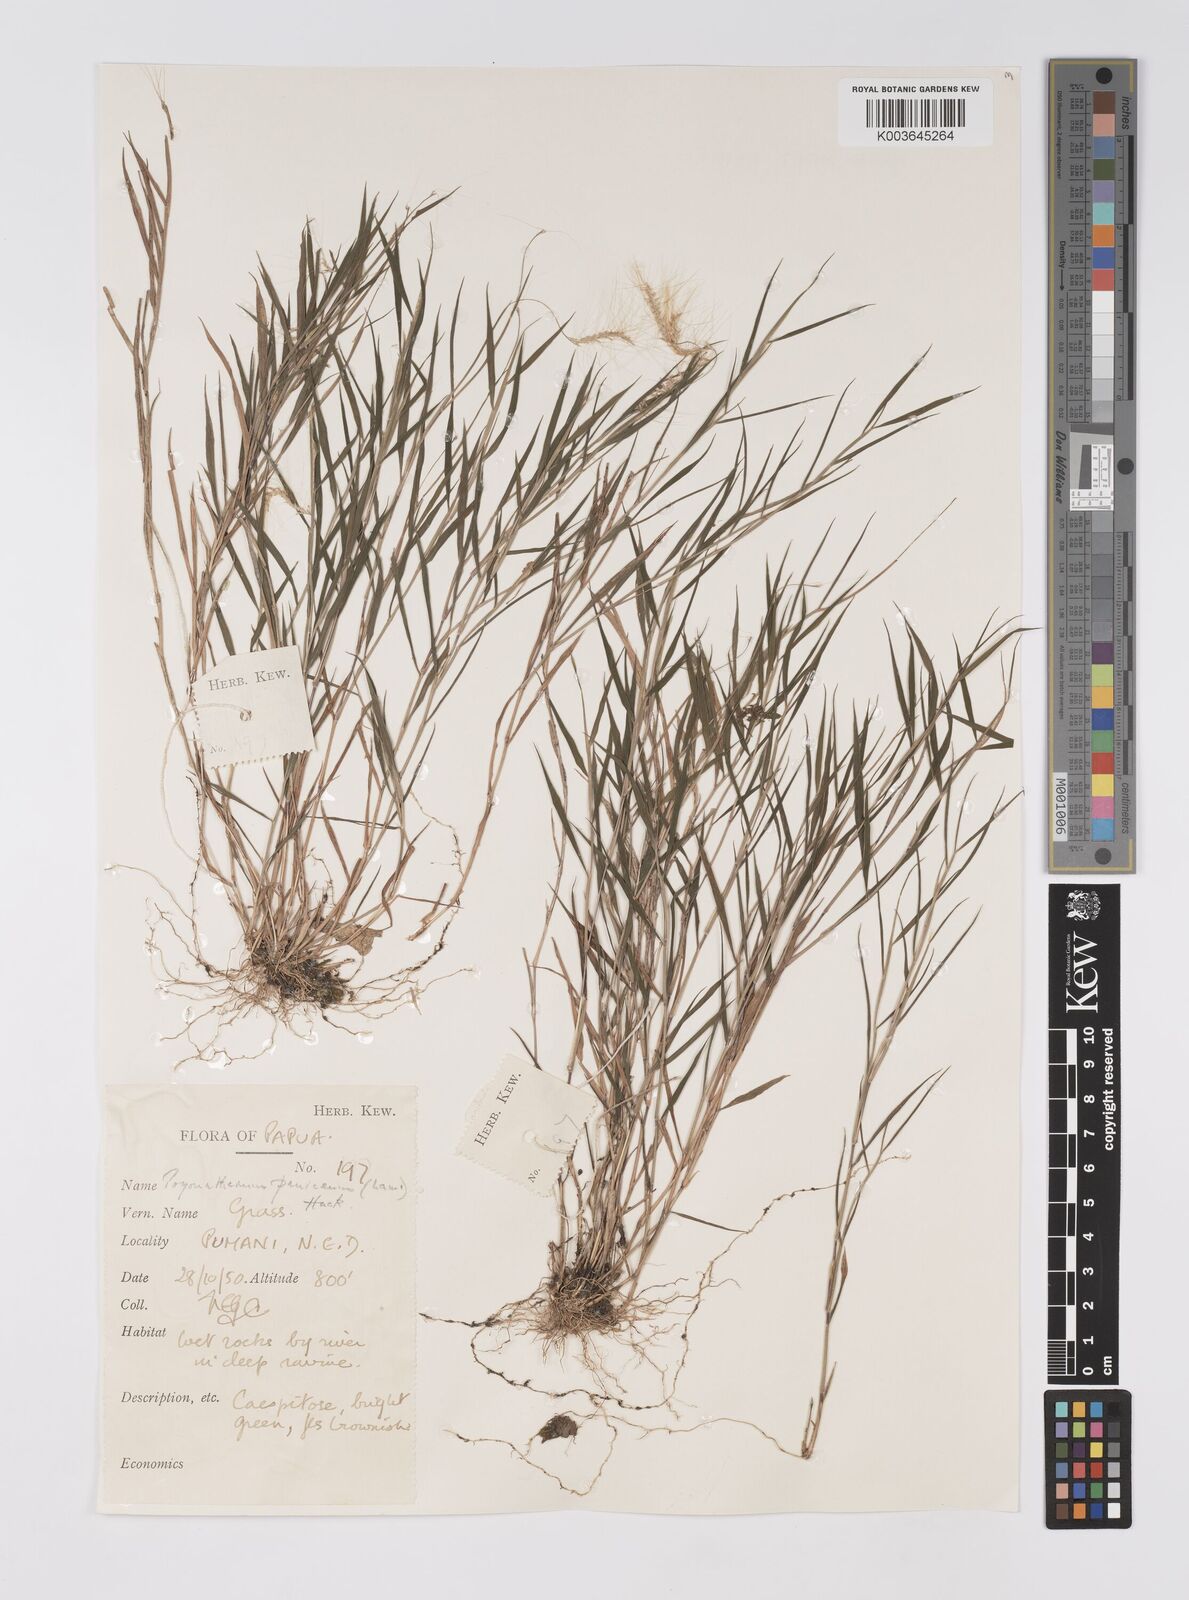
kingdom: Plantae
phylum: Tracheophyta
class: Liliopsida
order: Poales
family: Poaceae
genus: Pogonatherum
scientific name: Pogonatherum crinitum
